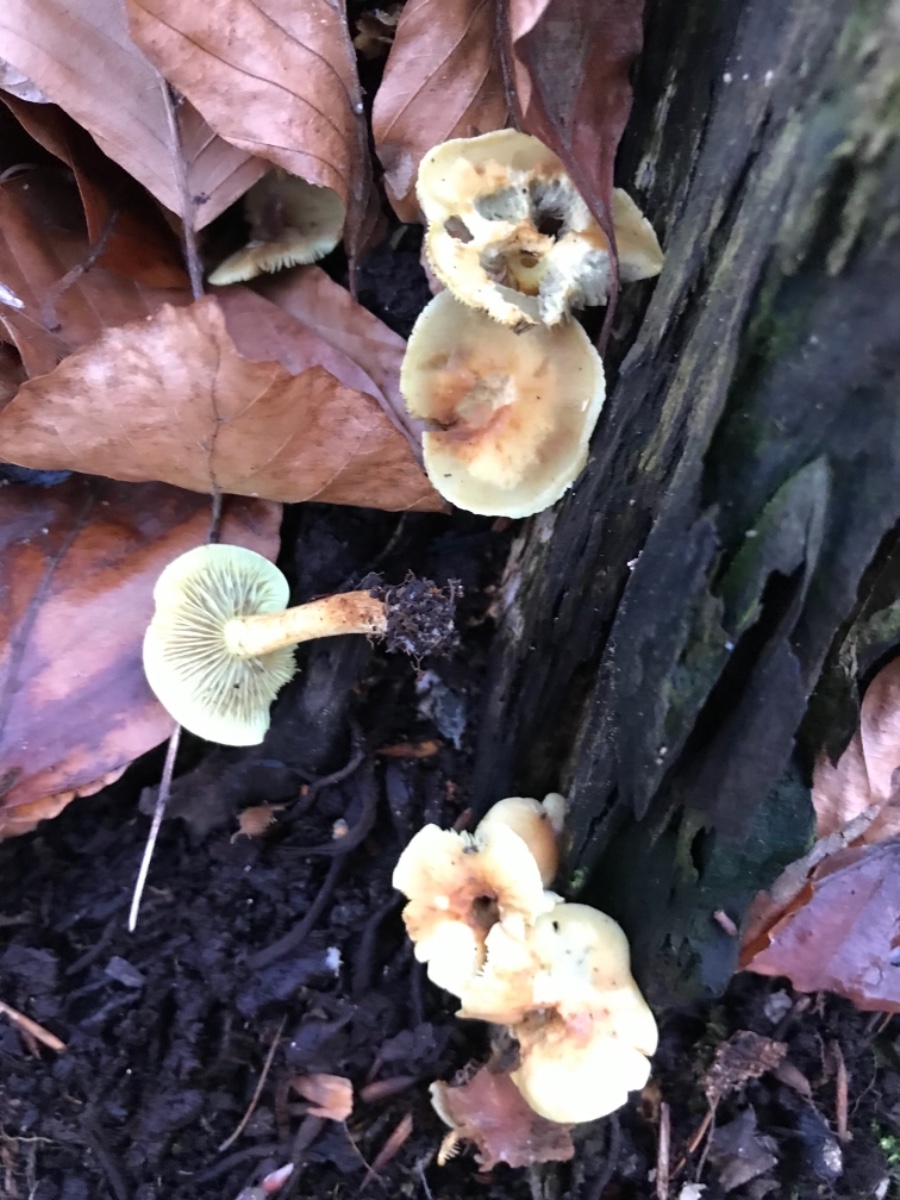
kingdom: Fungi
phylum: Basidiomycota
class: Agaricomycetes
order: Agaricales
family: Strophariaceae
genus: Hypholoma
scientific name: Hypholoma fasciculare
